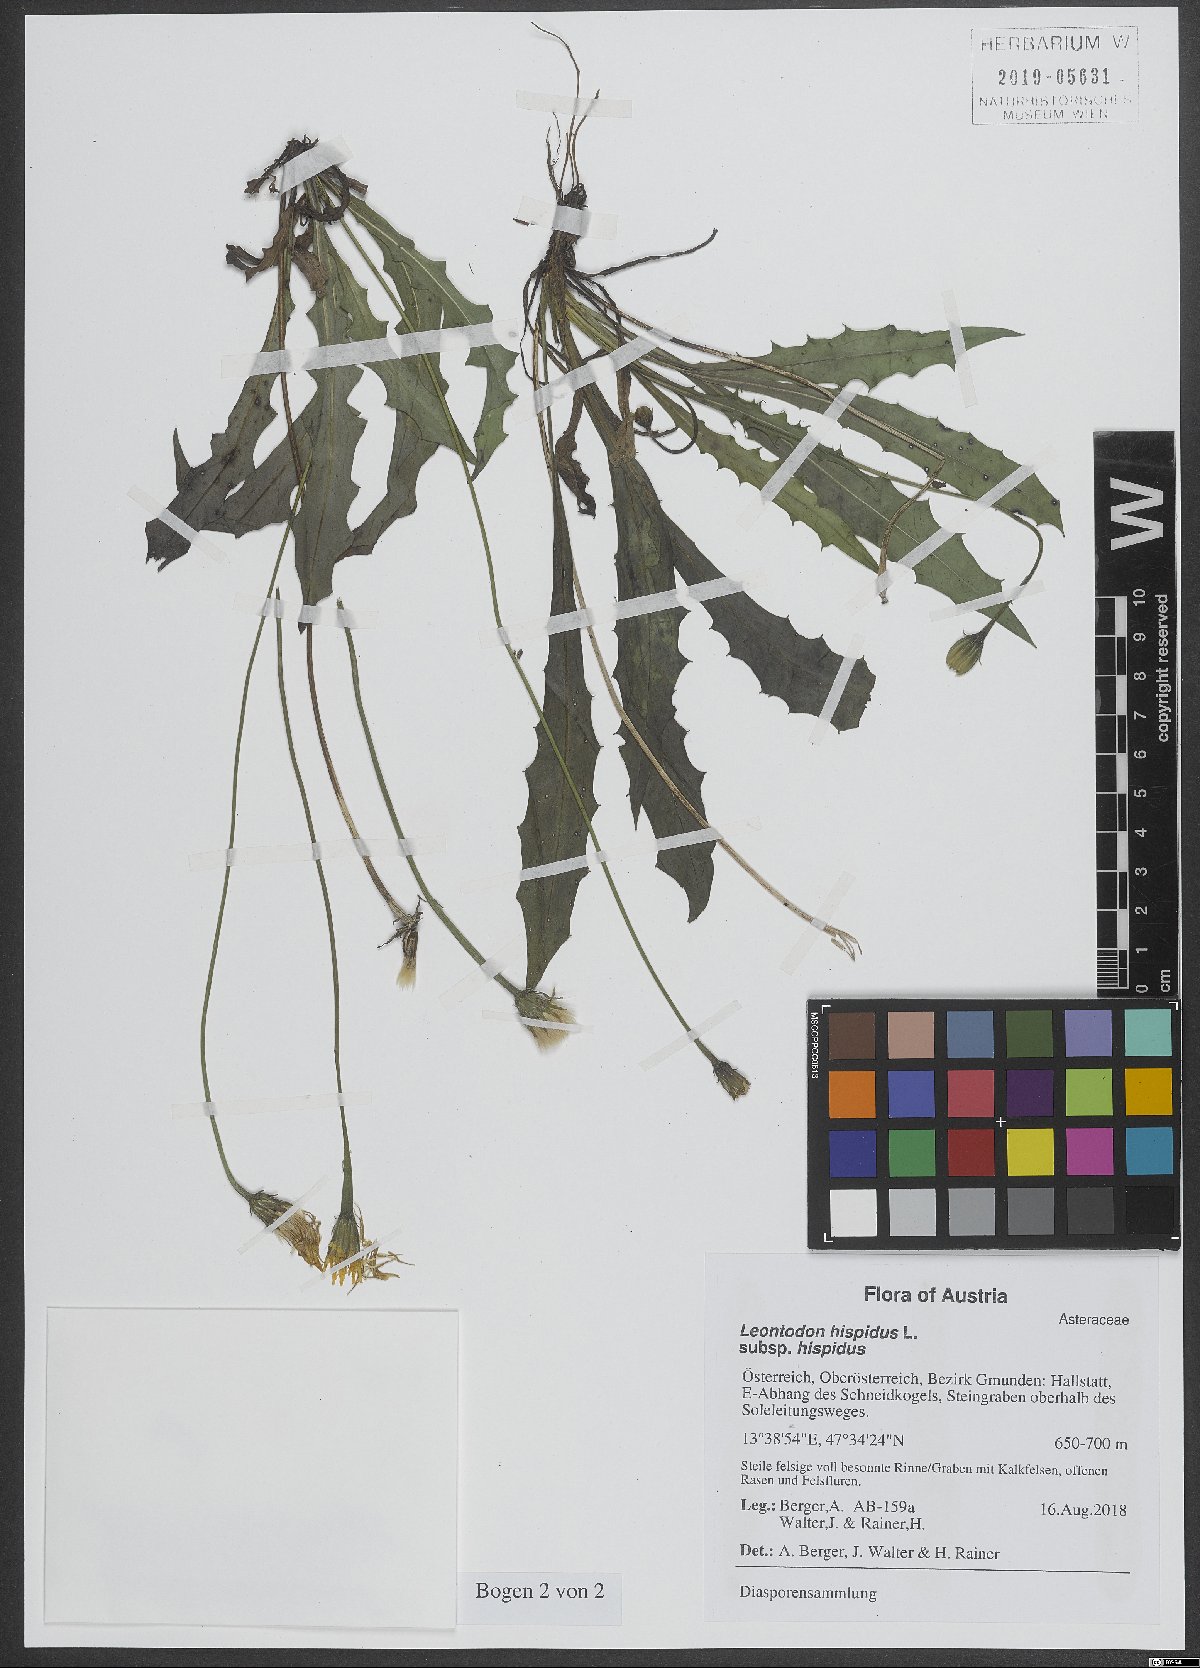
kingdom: Plantae
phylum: Tracheophyta
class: Magnoliopsida
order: Asterales
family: Asteraceae
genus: Leontodon
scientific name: Leontodon hispidus
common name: Rough hawkbit
